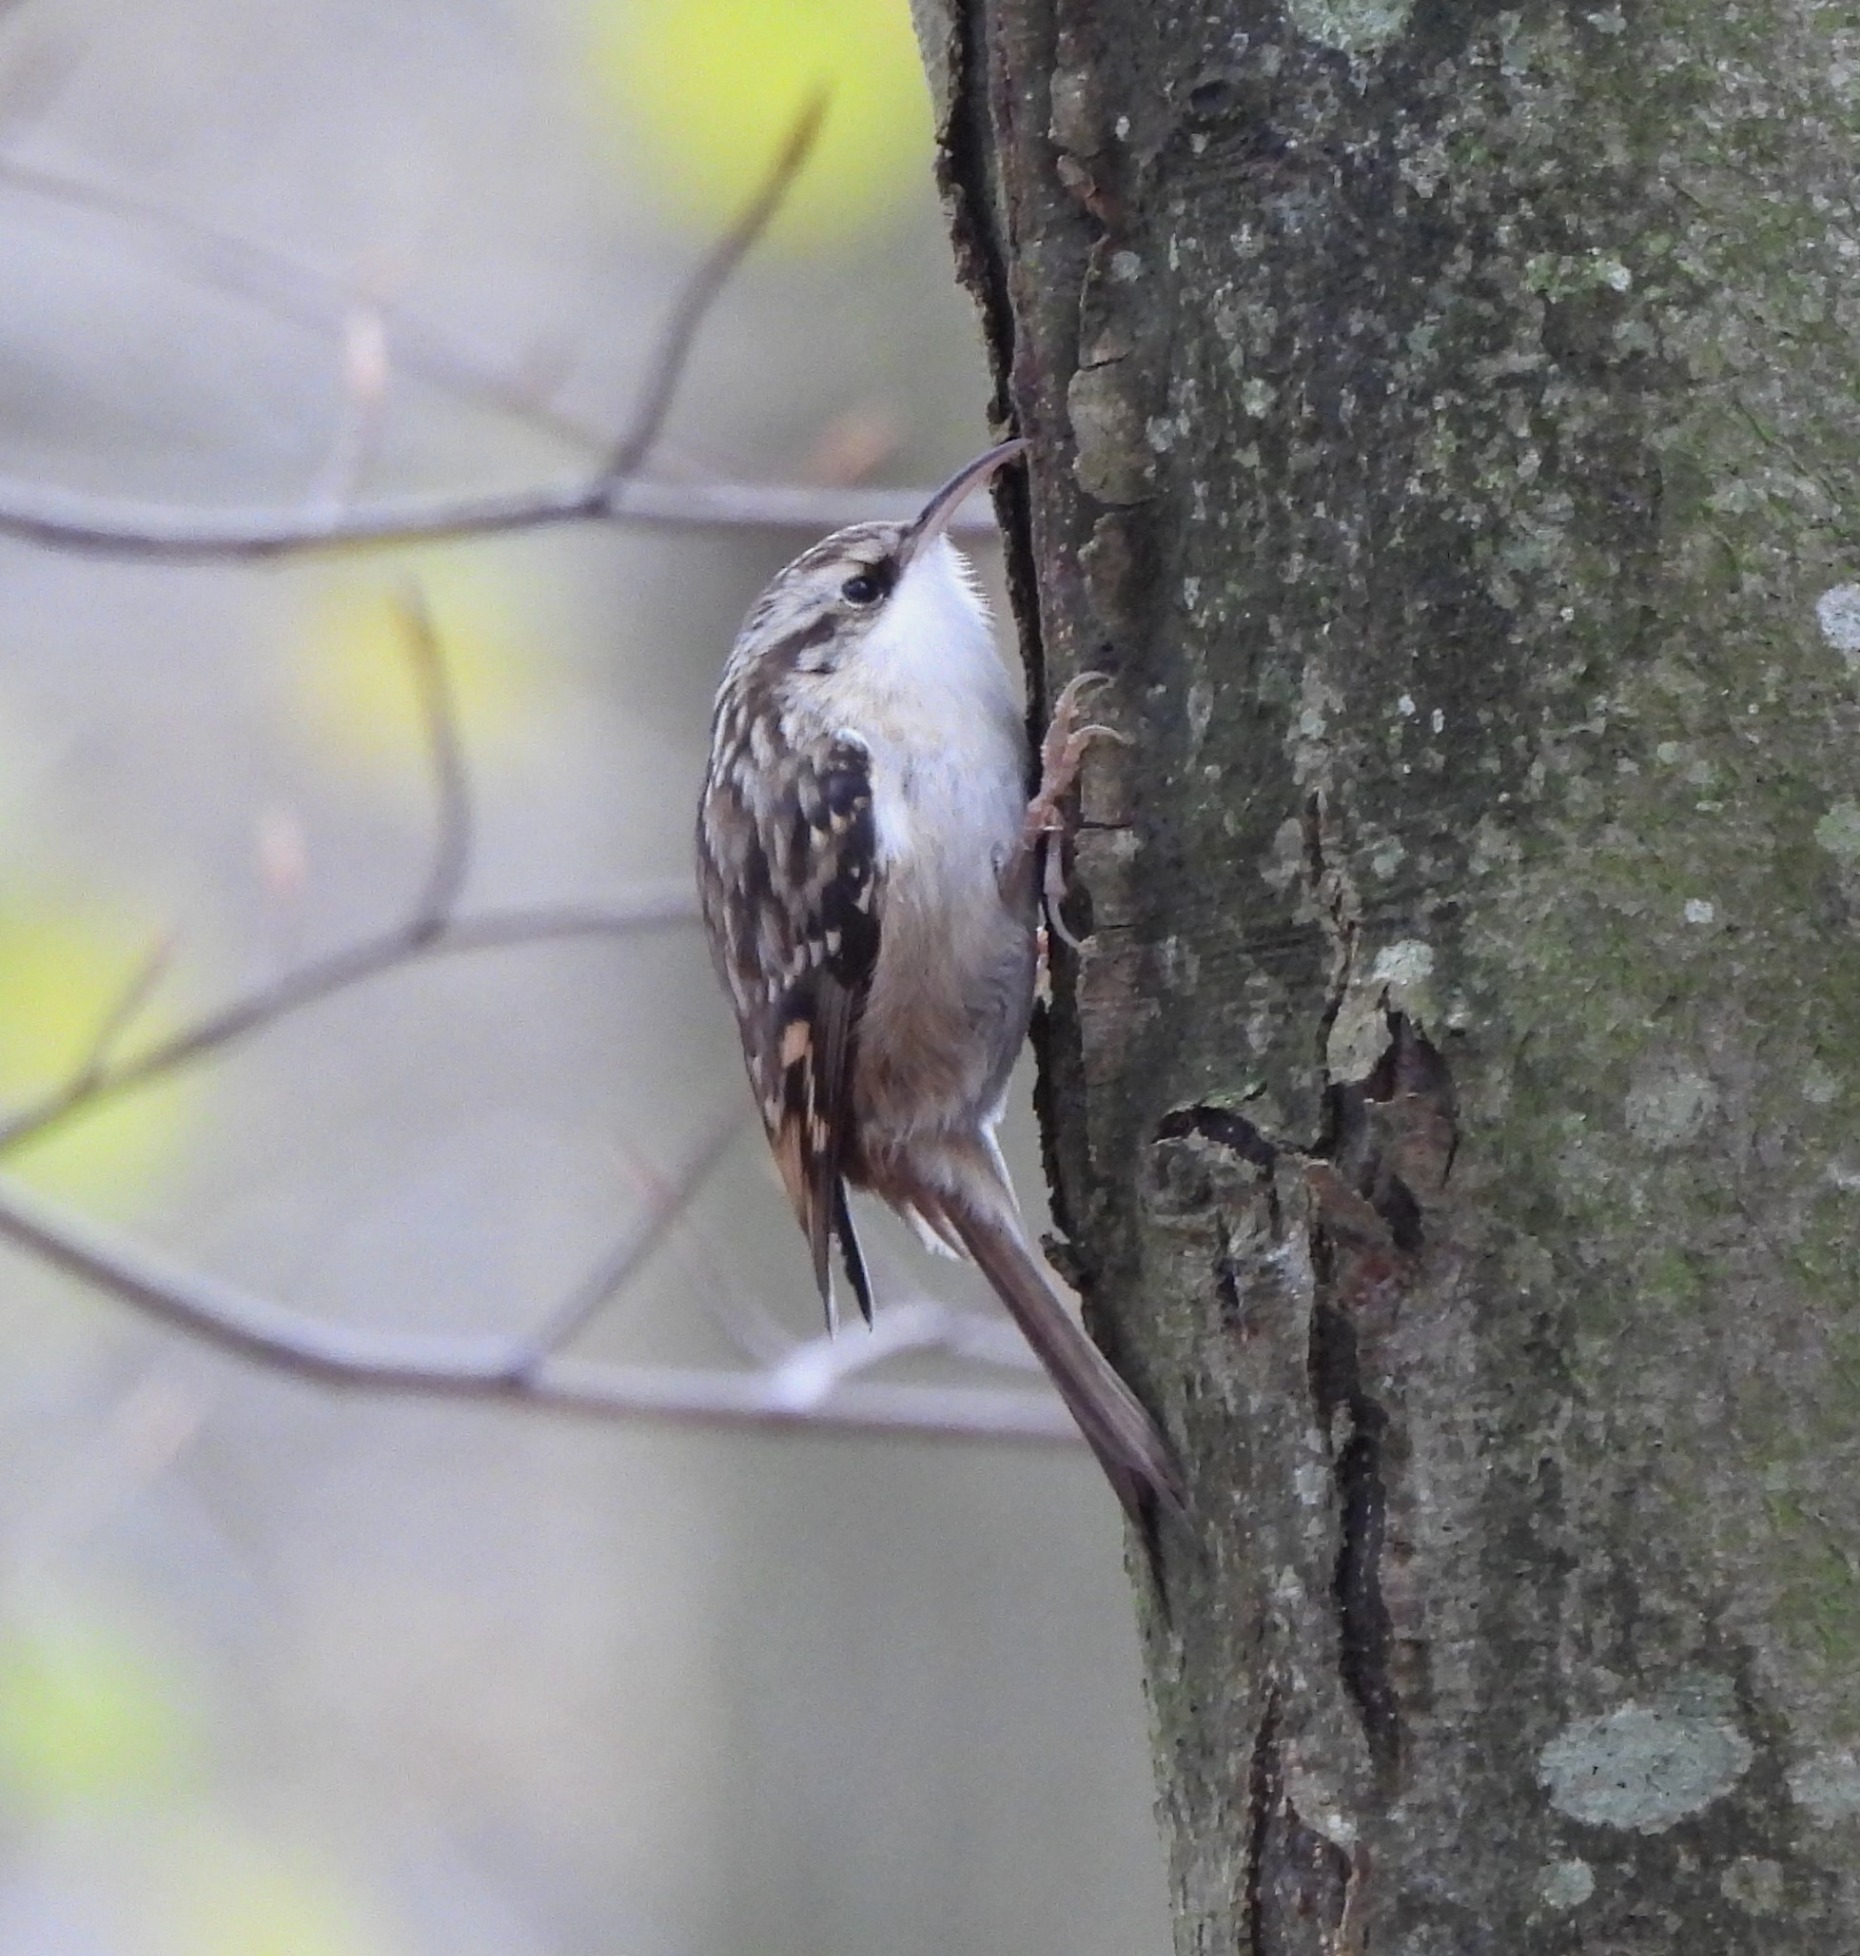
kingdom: Animalia
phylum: Chordata
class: Aves
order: Passeriformes
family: Certhiidae
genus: Certhia
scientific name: Certhia brachydactyla
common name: Korttået træløber
